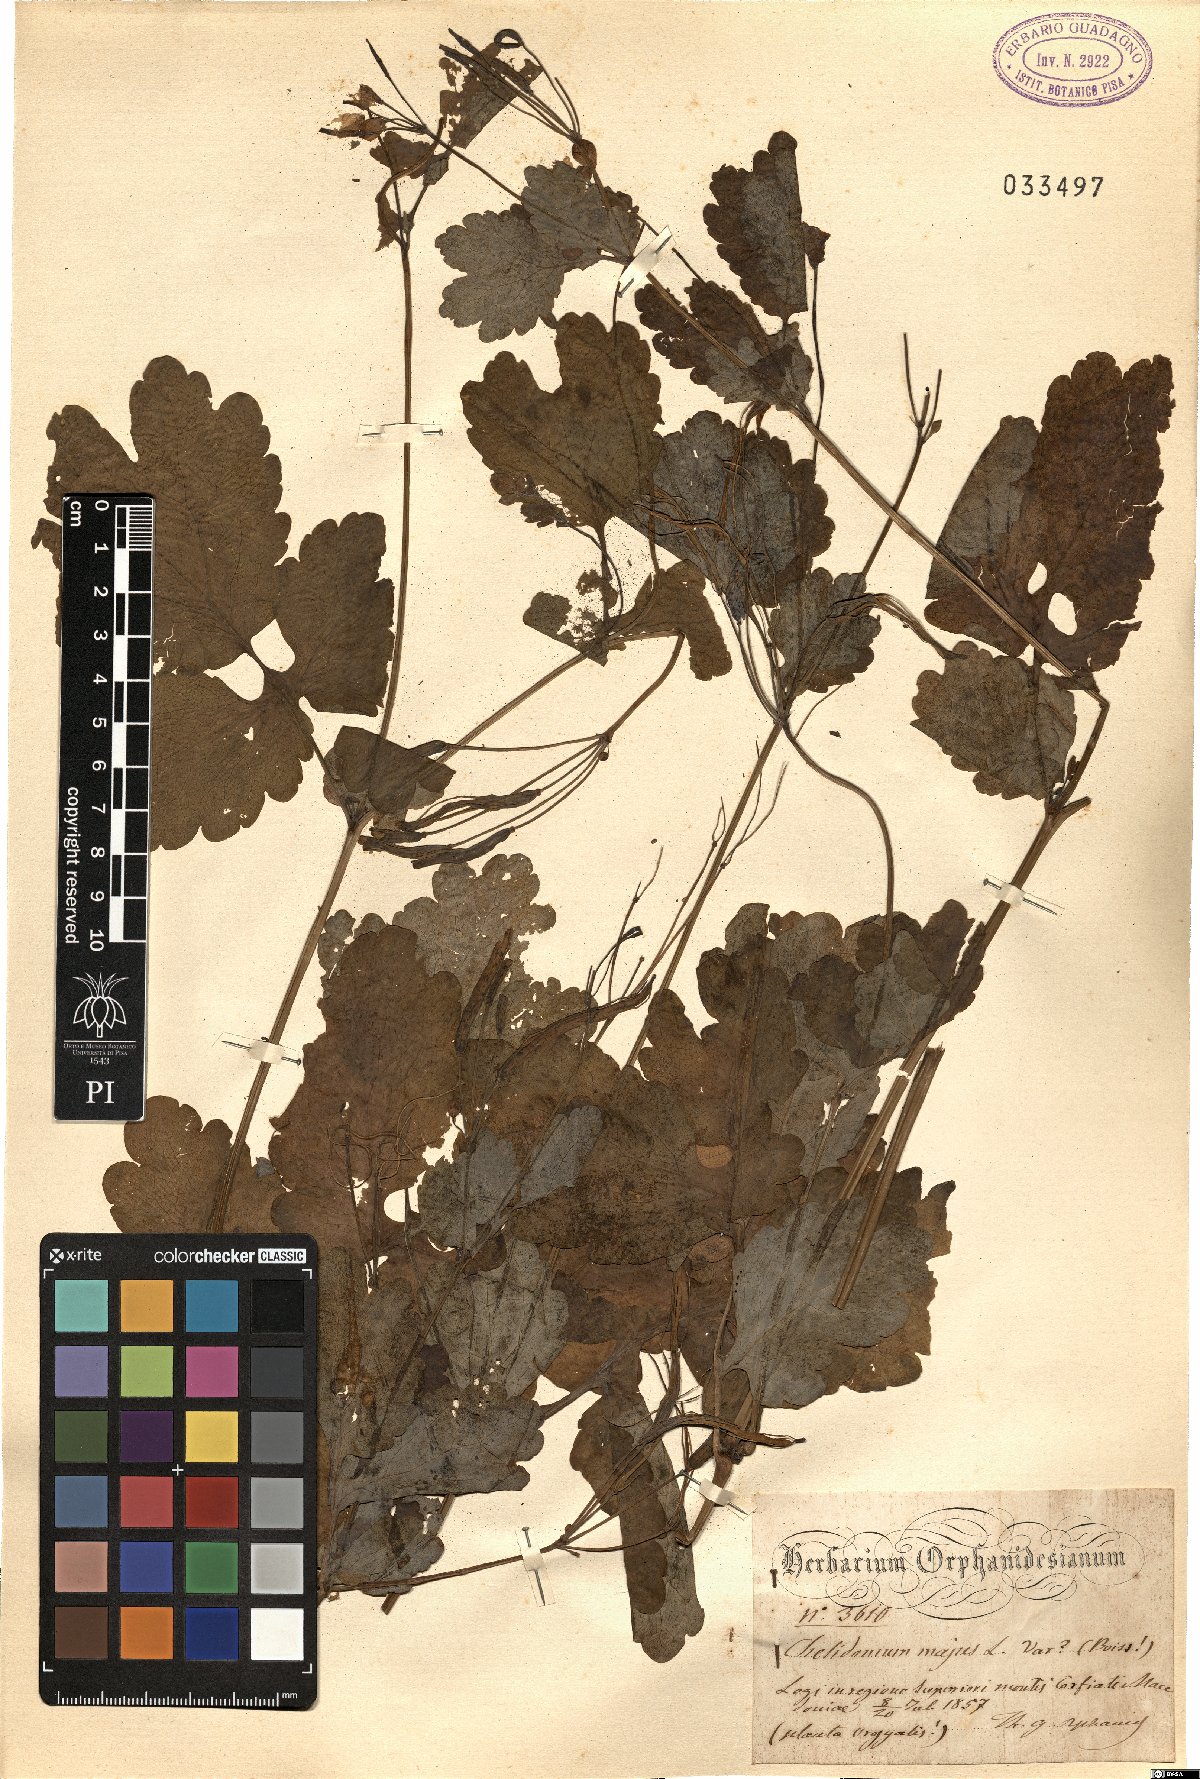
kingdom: Plantae
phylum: Tracheophyta
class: Magnoliopsida
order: Ranunculales
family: Papaveraceae
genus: Chelidonium
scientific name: Chelidonium majus
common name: Greater celandine
